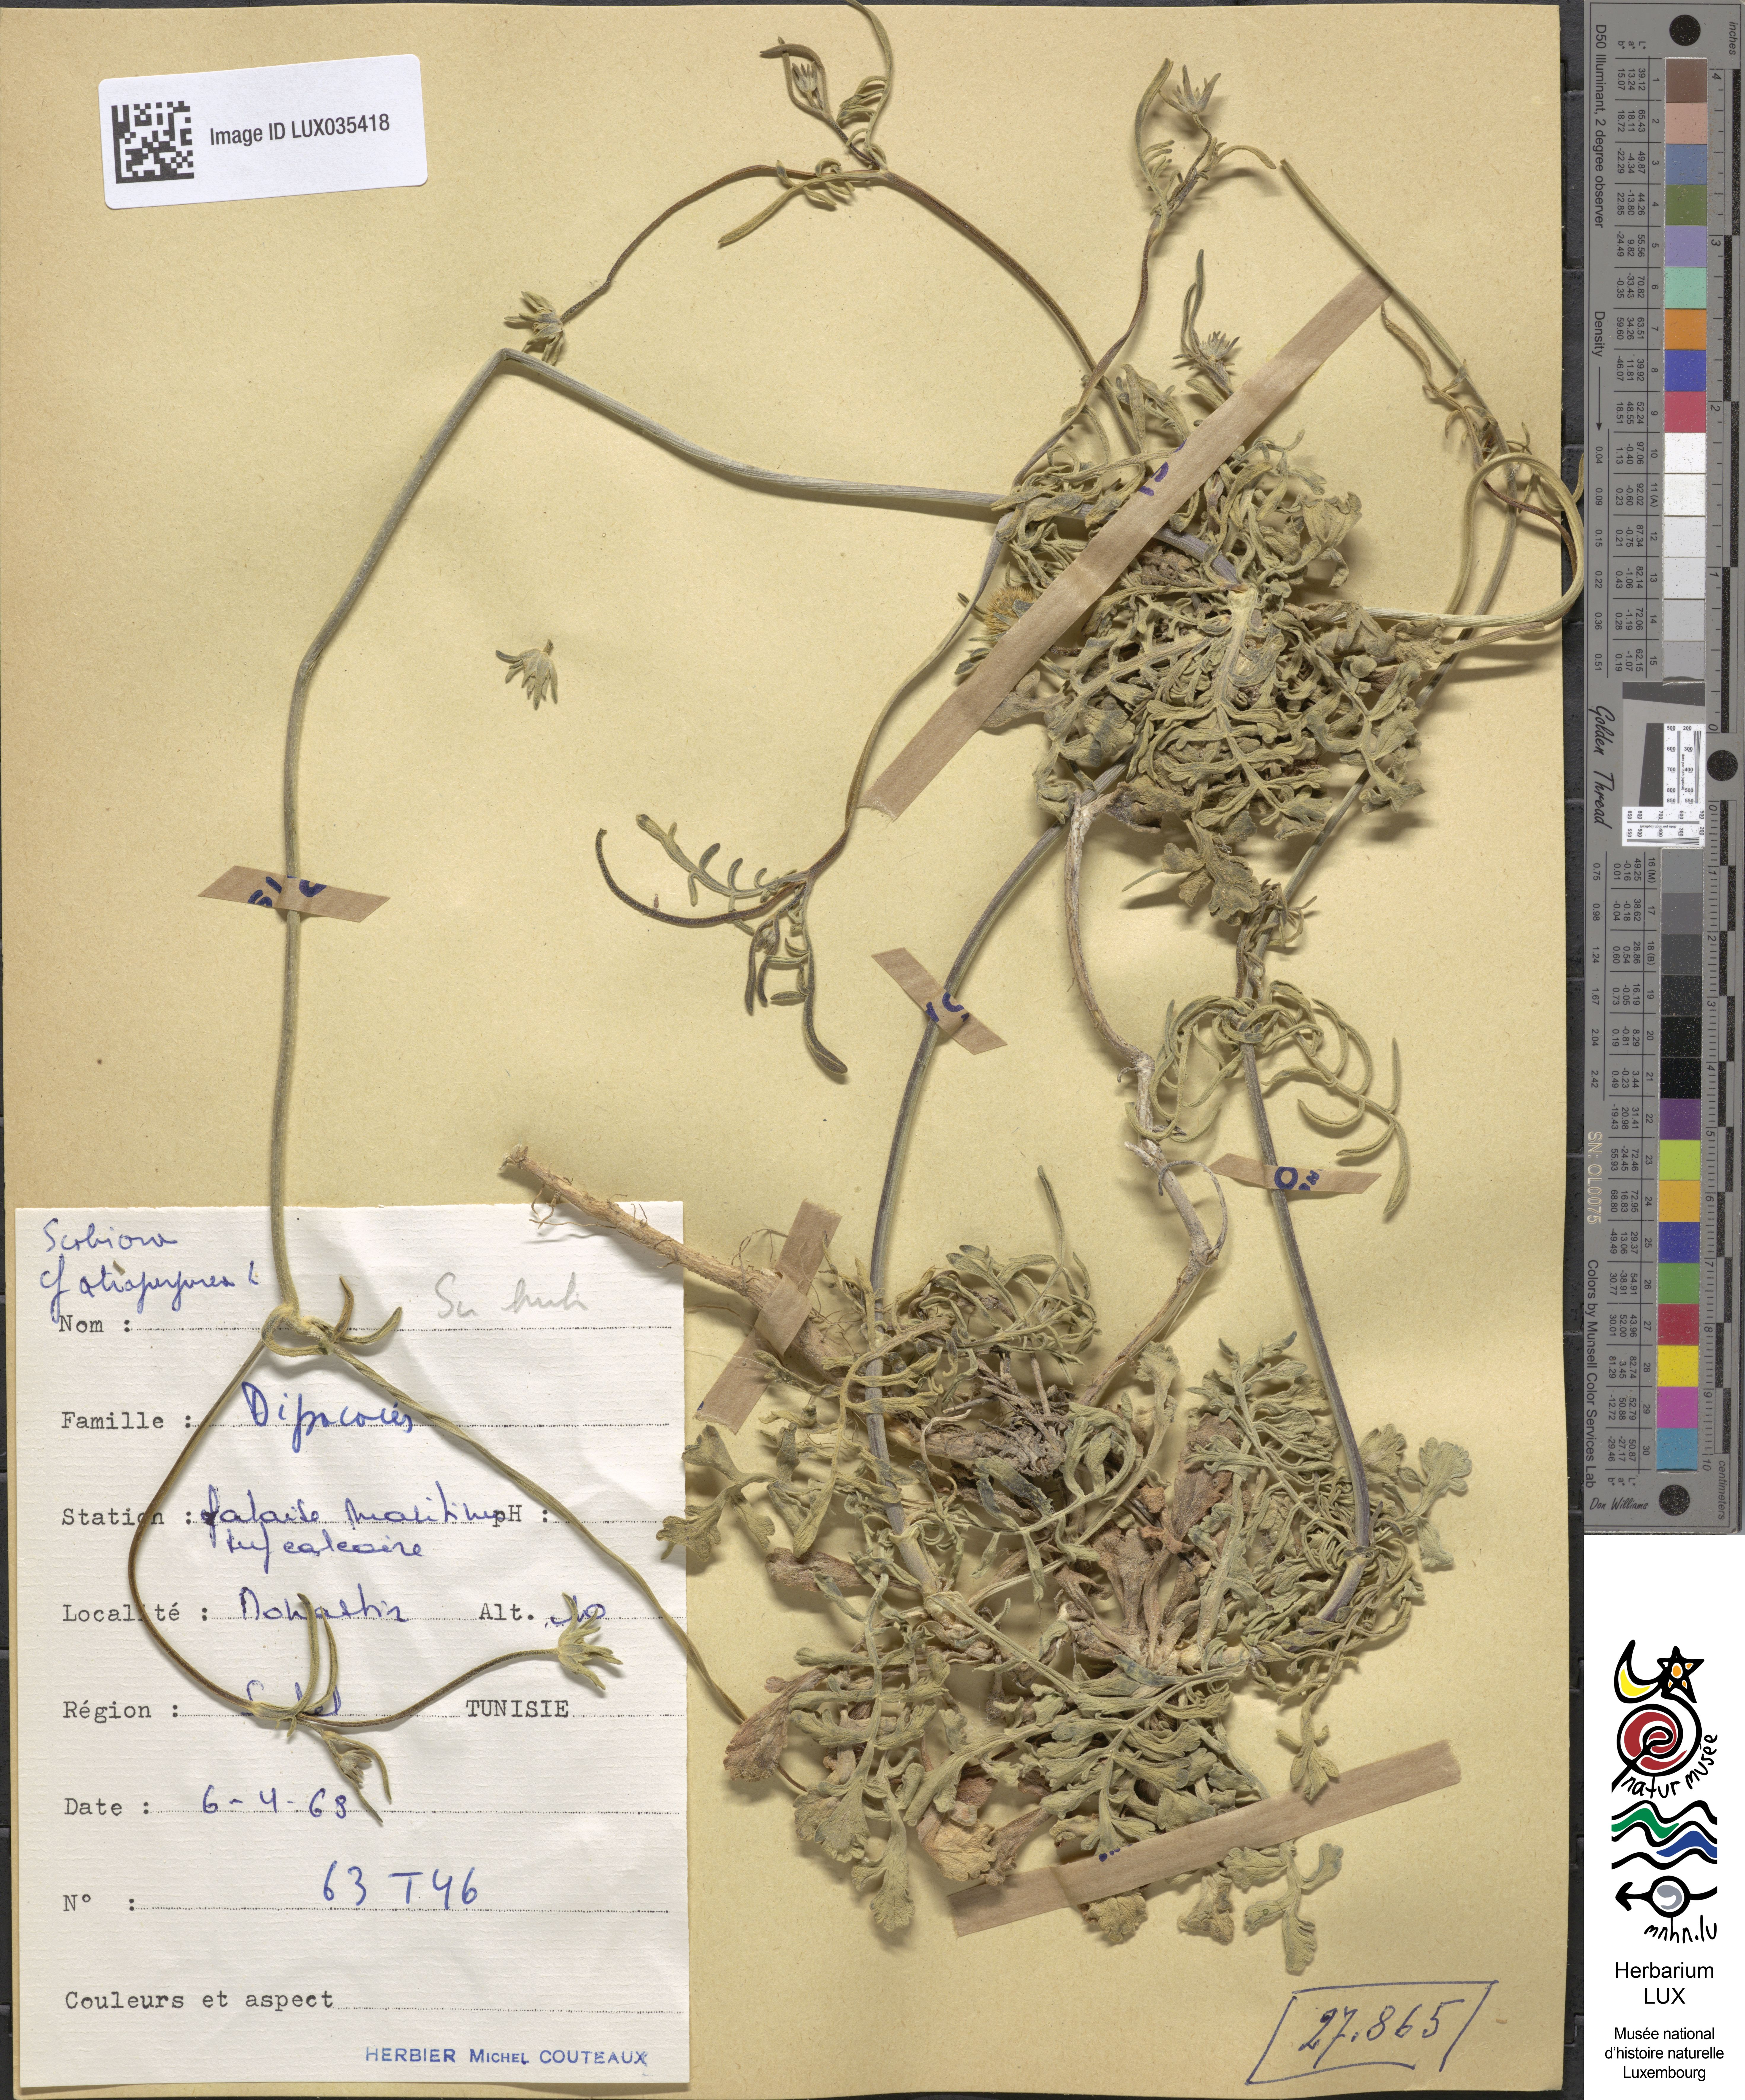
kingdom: Plantae
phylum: Tracheophyta
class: Magnoliopsida
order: Dipsacales
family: Caprifoliaceae
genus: Sixalix
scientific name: Sixalix atropurpurea
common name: Sweet scabious
